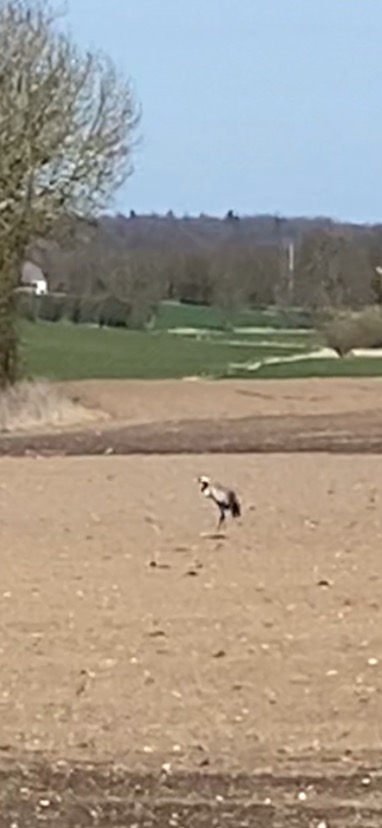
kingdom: Animalia
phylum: Chordata
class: Aves
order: Gruiformes
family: Gruidae
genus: Grus
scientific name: Grus grus
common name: Trane
